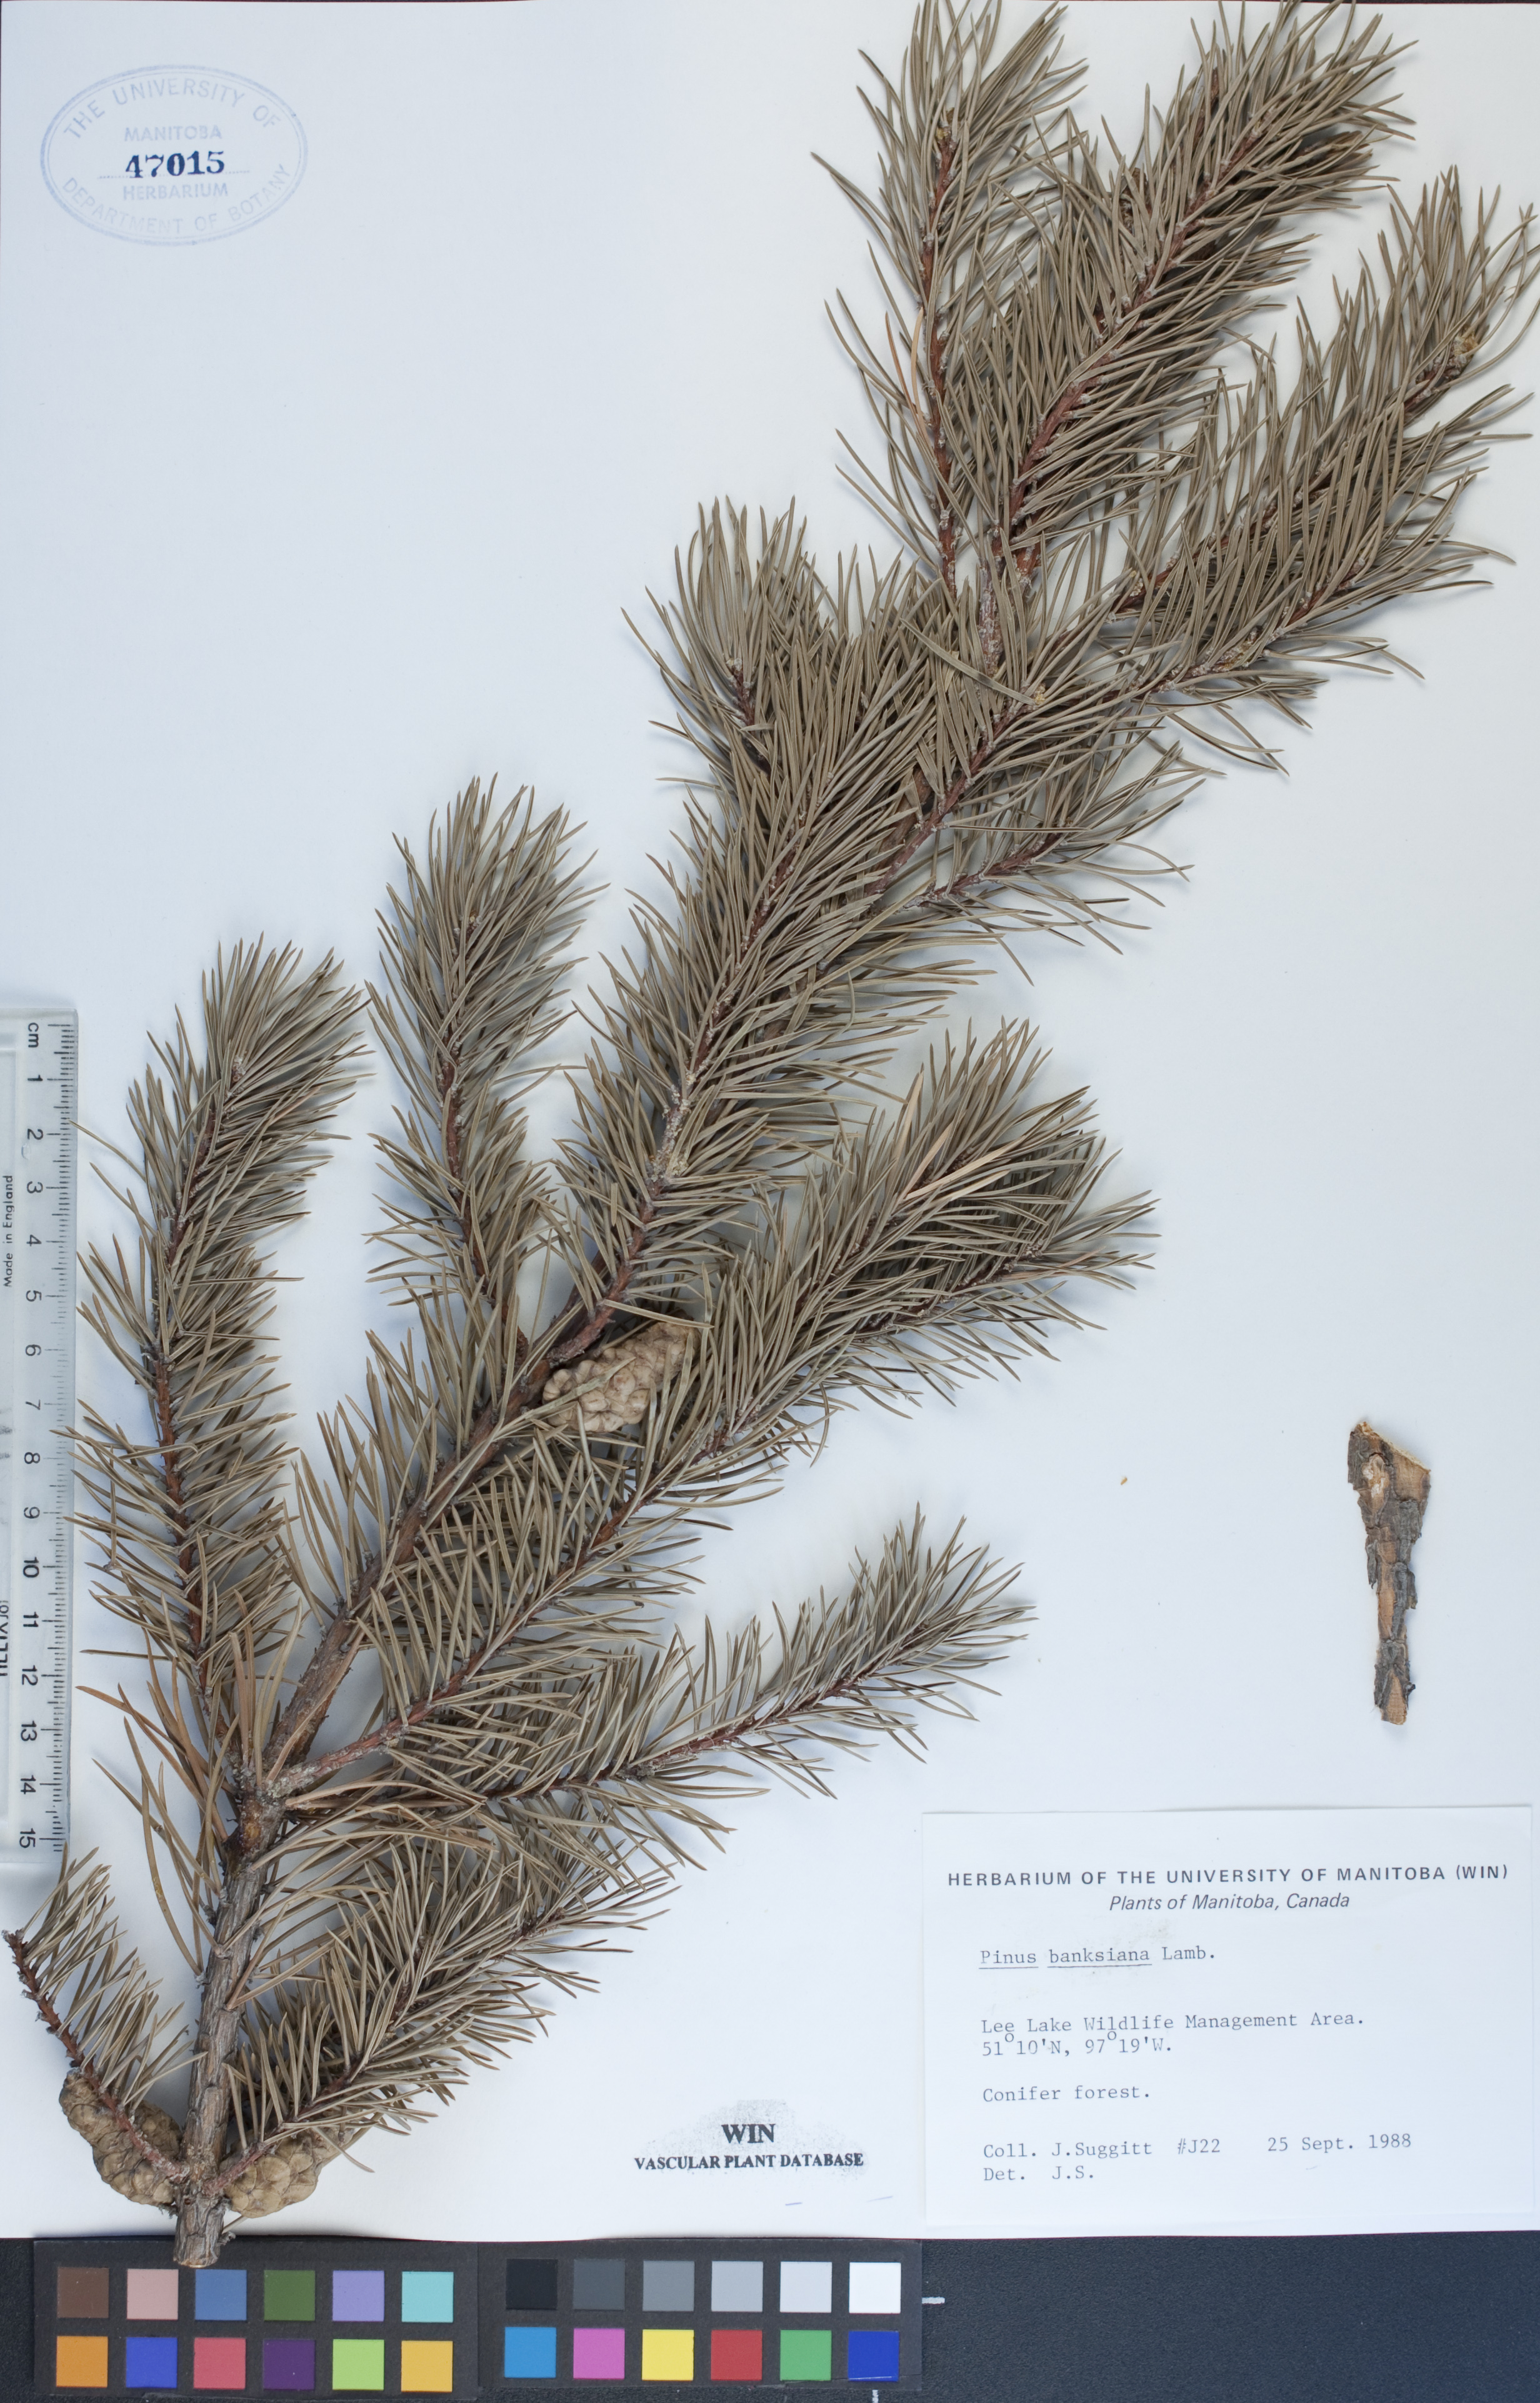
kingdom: Plantae
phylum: Tracheophyta
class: Pinopsida
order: Pinales
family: Pinaceae
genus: Pinus
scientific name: Pinus banksiana
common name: Jack pine
